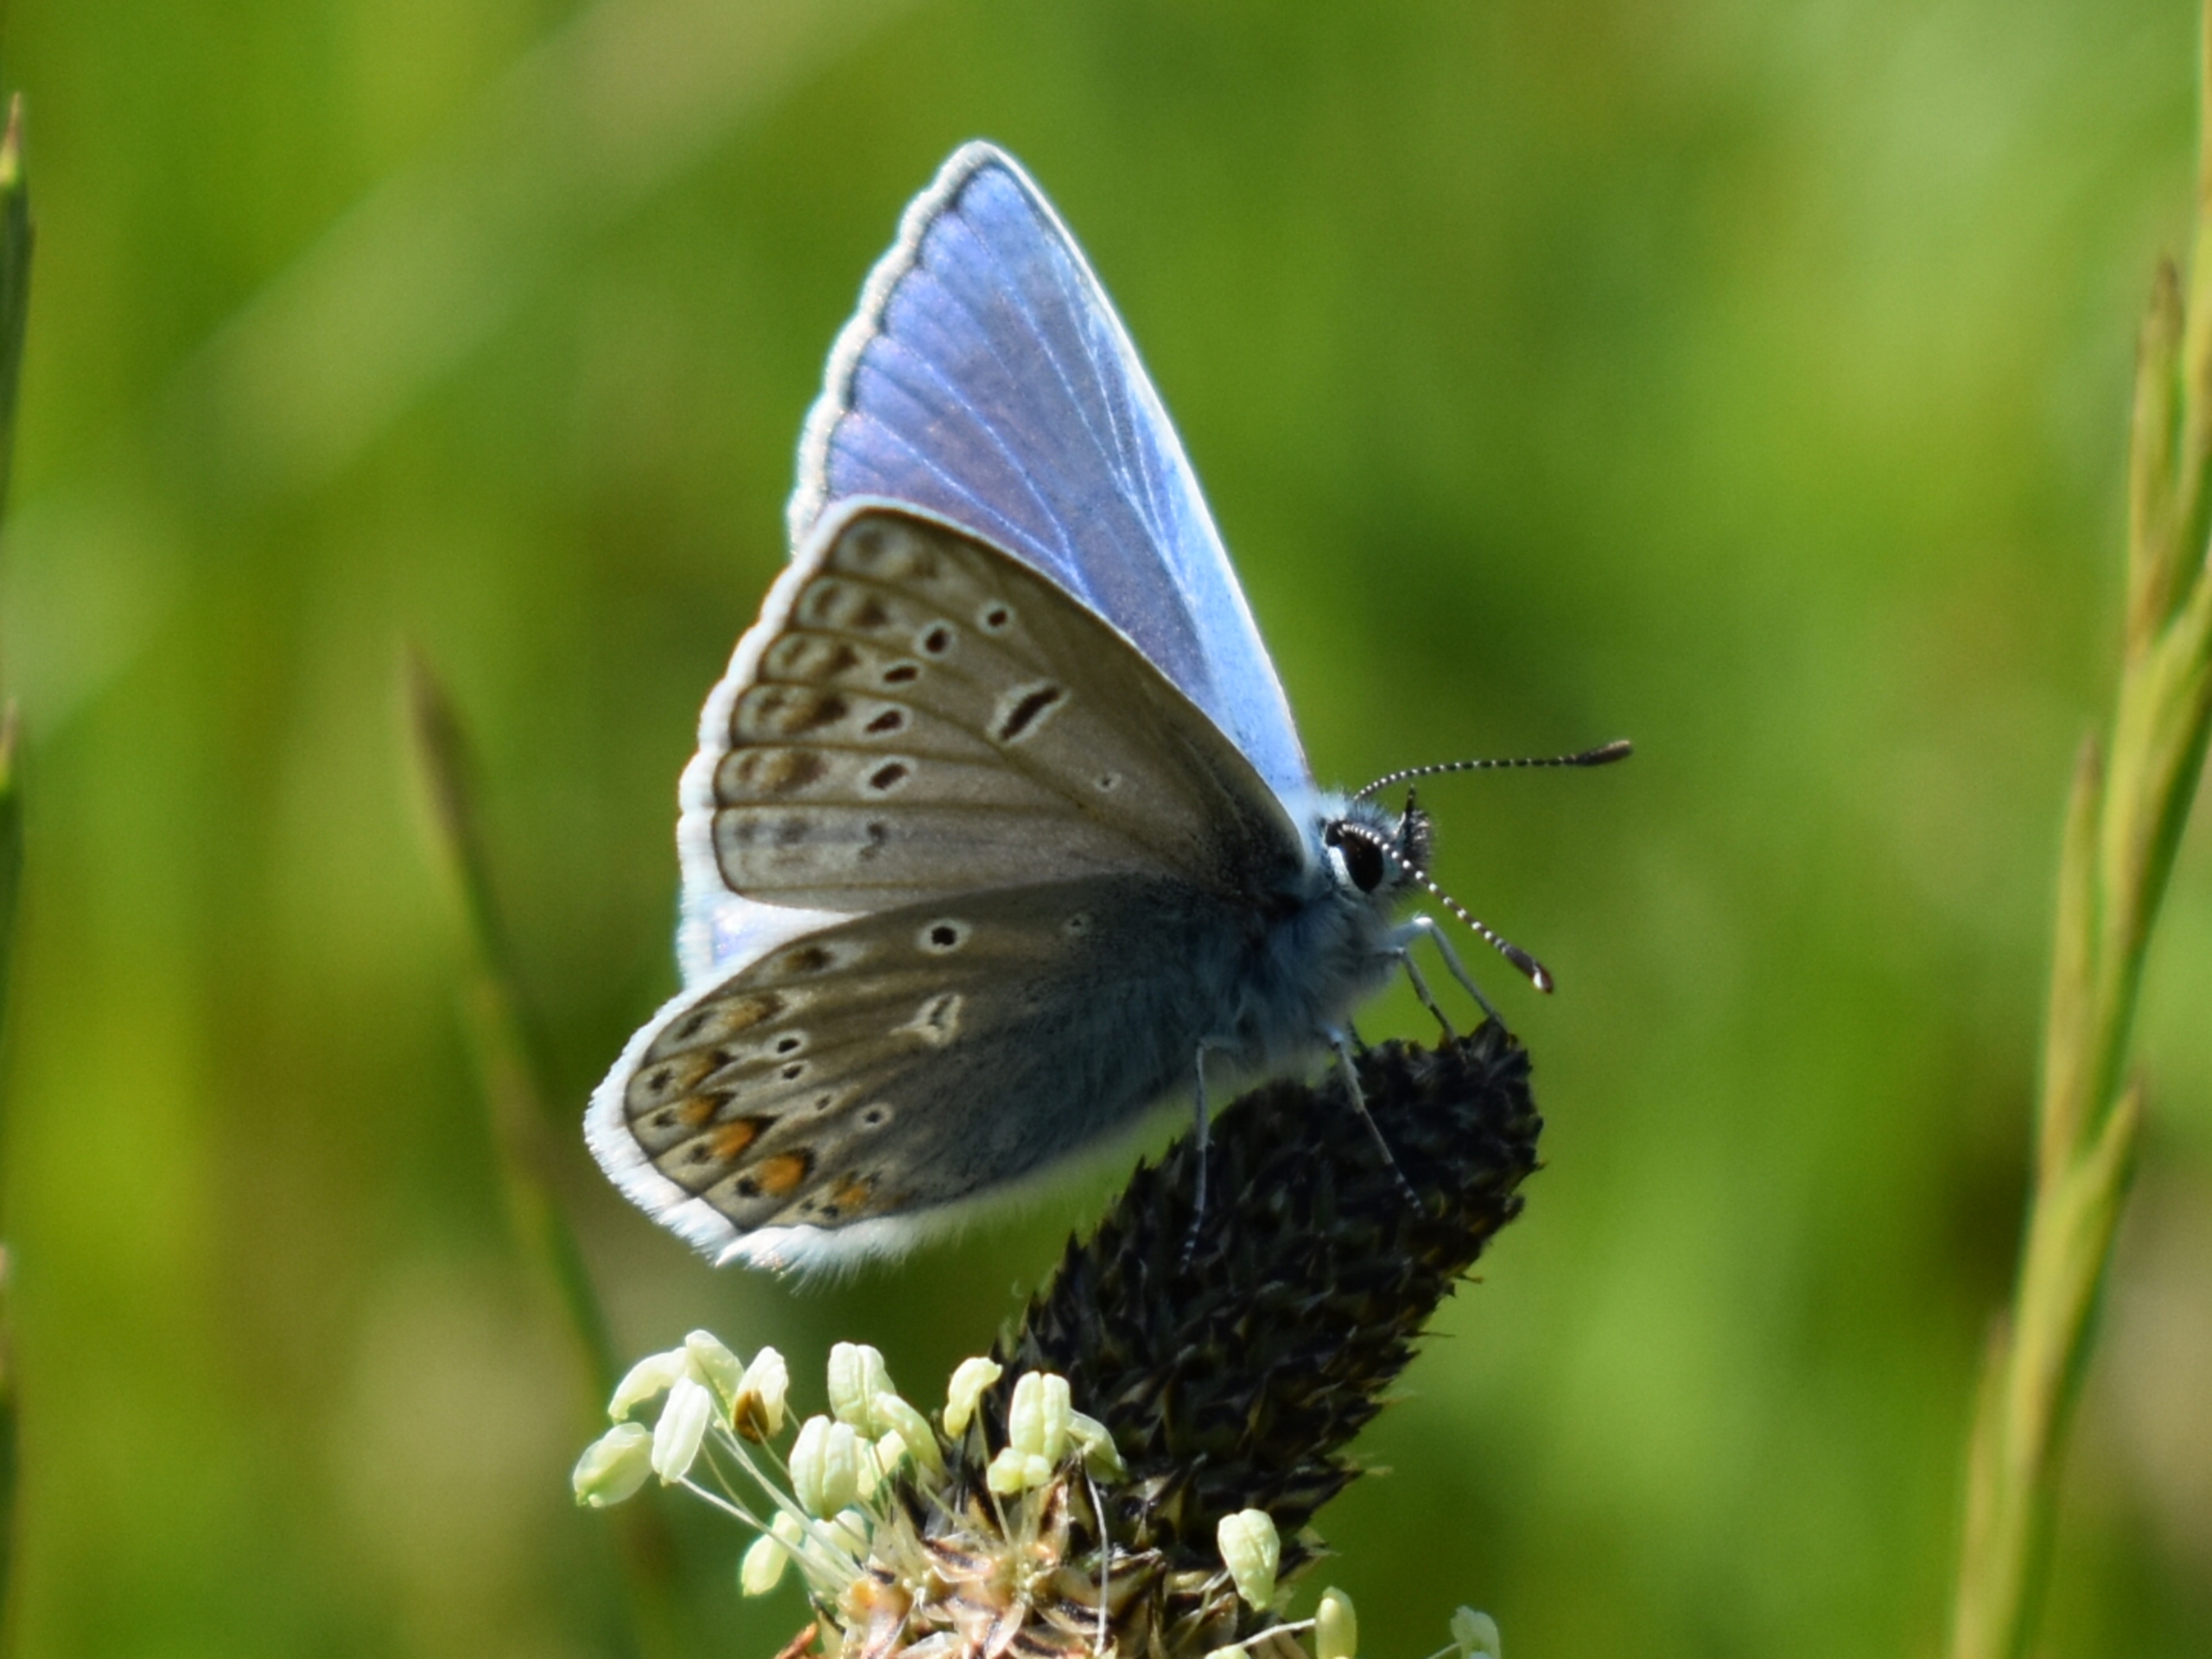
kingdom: Animalia
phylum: Arthropoda
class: Insecta
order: Lepidoptera
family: Lycaenidae
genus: Polyommatus
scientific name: Polyommatus icarus
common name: Almindelig blåfugl
